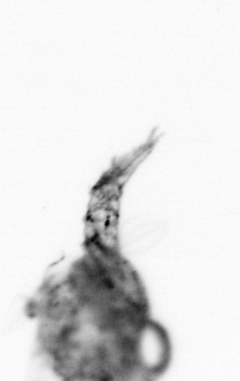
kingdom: Animalia
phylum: Arthropoda
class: Copepoda
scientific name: Copepoda
